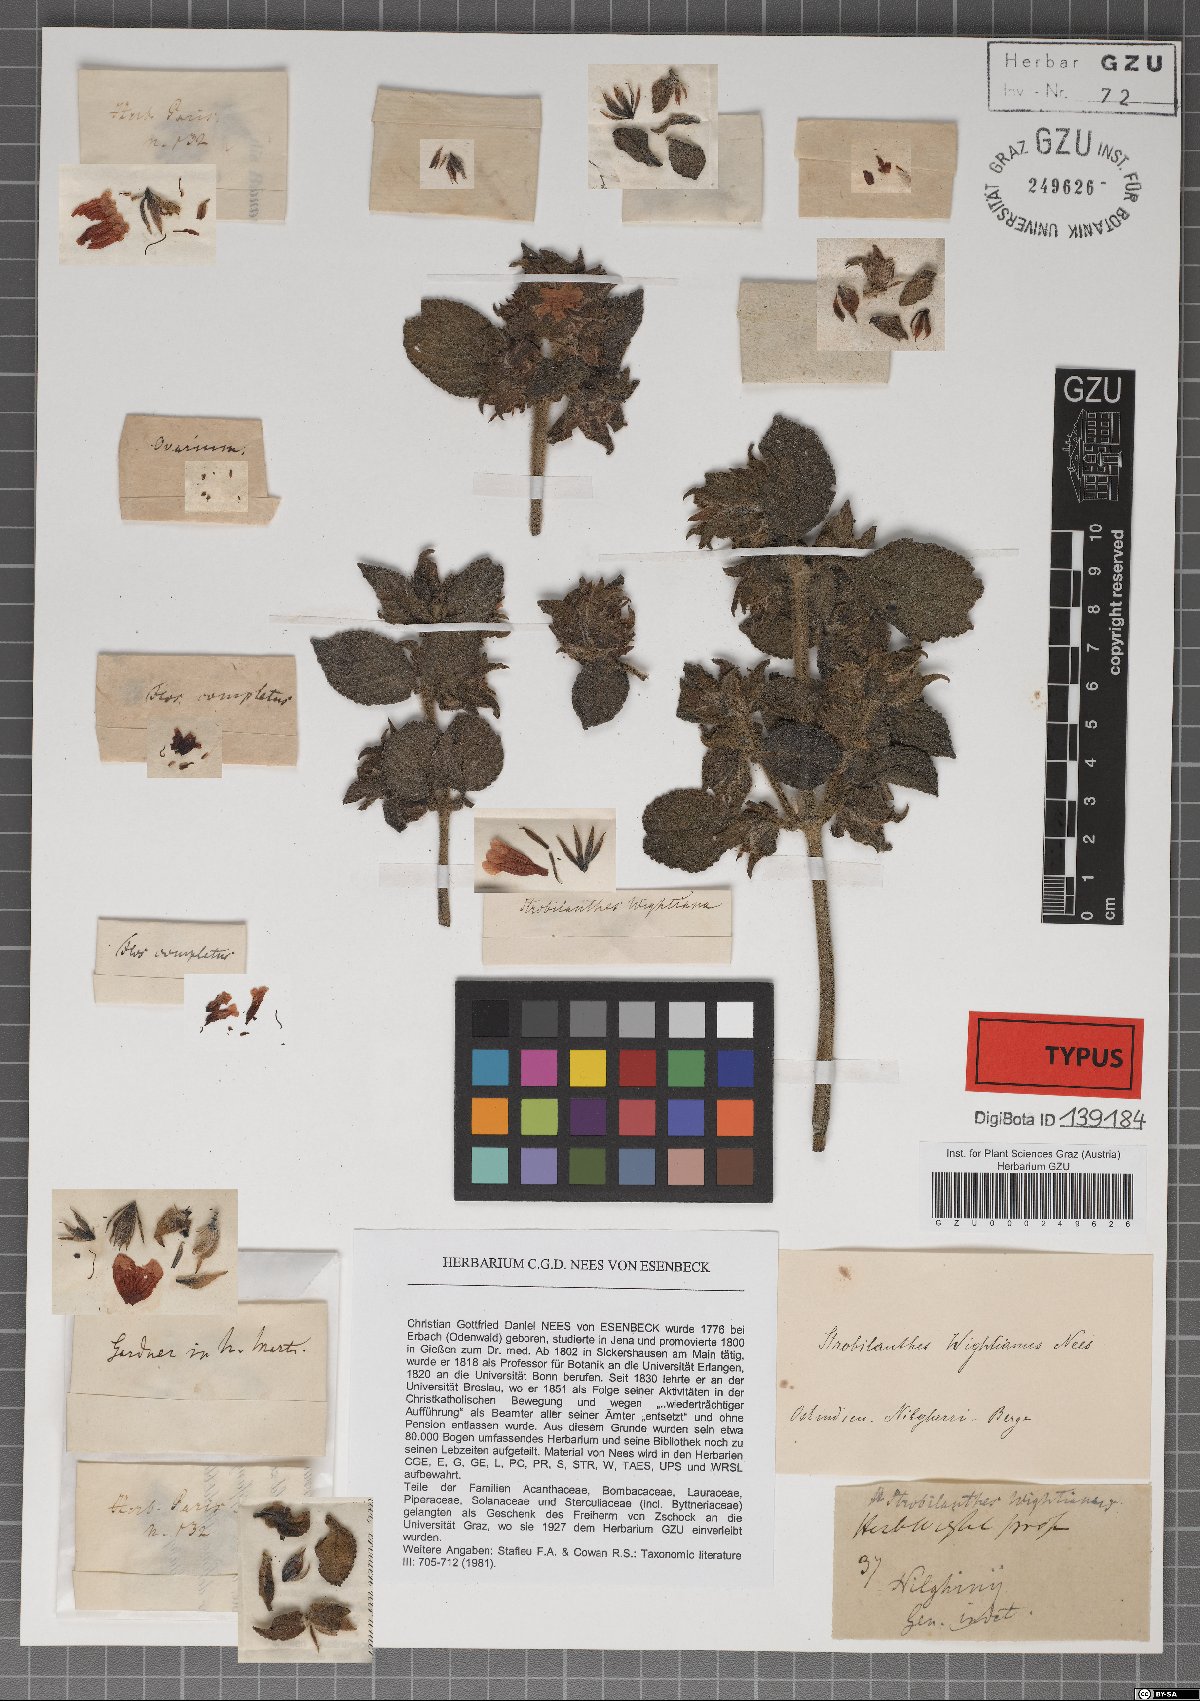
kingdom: Plantae
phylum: Tracheophyta
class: Magnoliopsida
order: Lamiales
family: Acanthaceae
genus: Strobilanthes
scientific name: Strobilanthes wightiana
